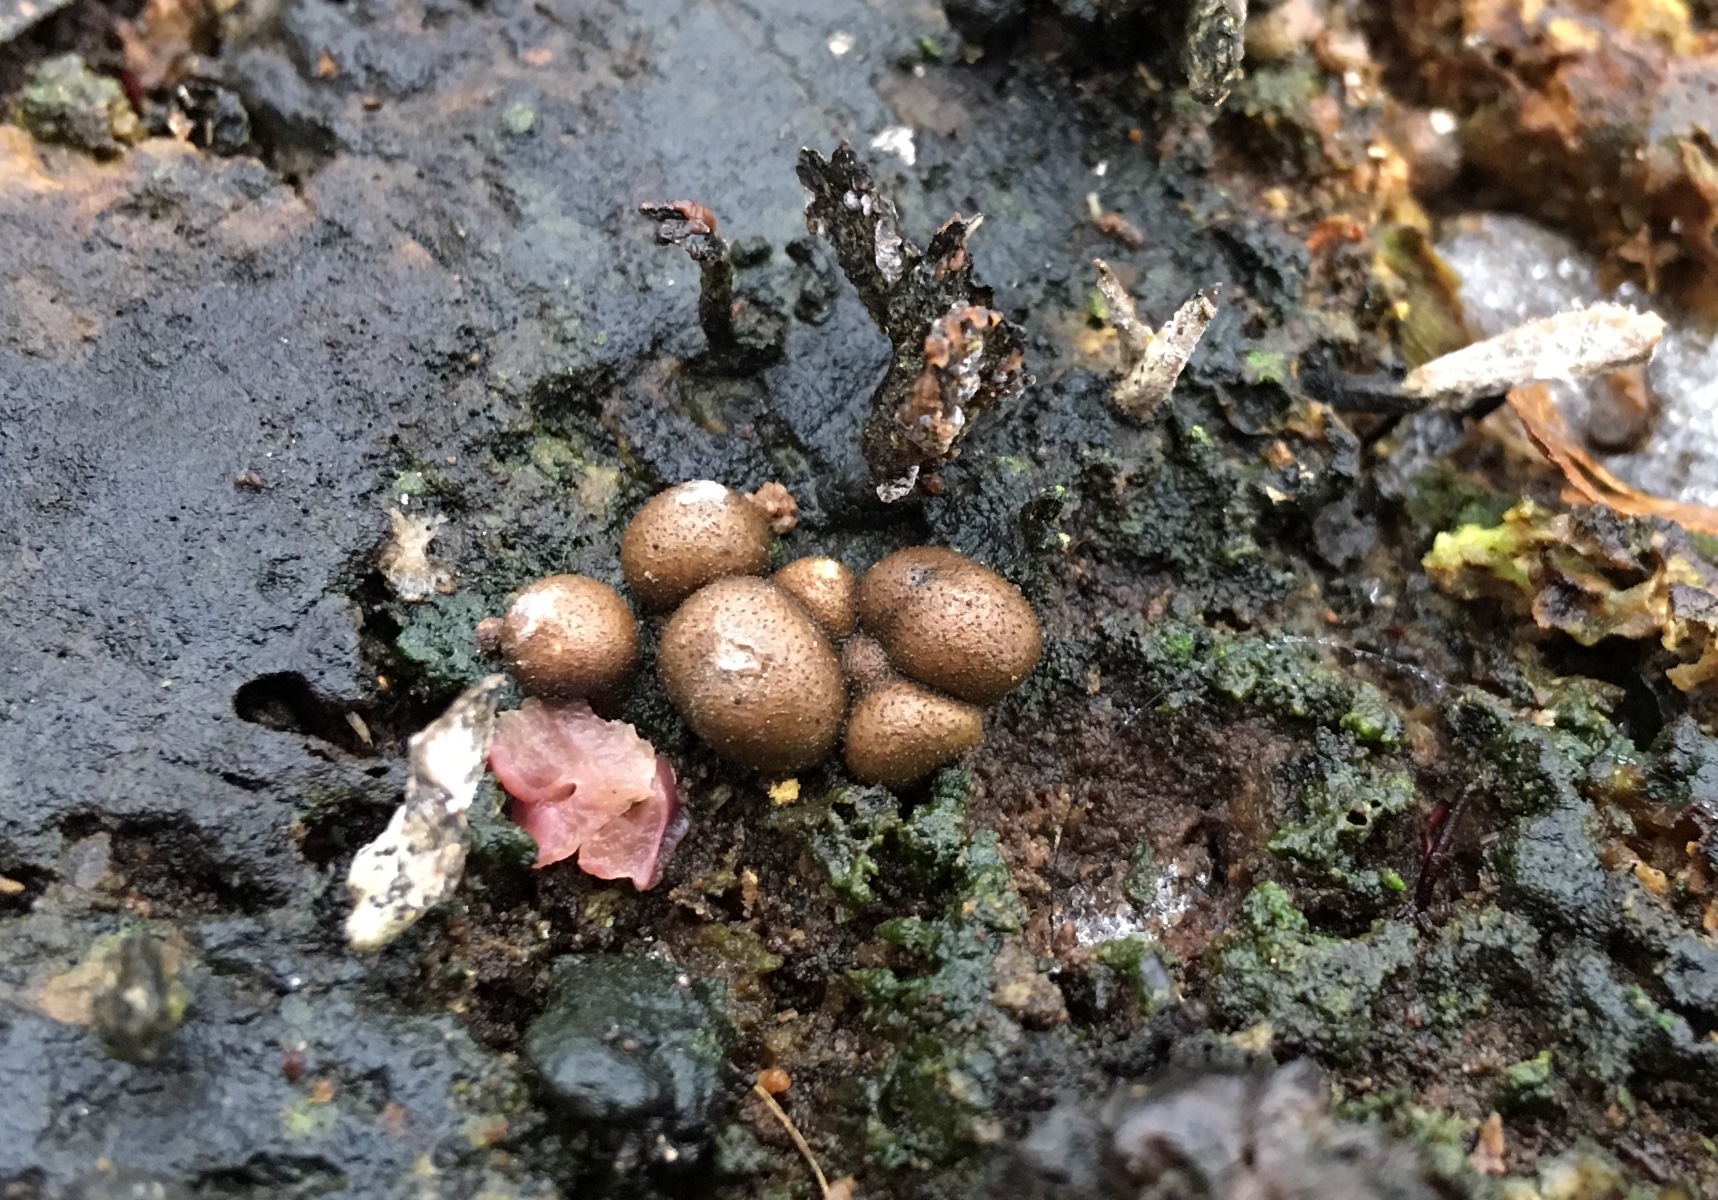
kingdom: Protozoa
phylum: Mycetozoa
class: Myxomycetes
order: Cribrariales
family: Tubiferaceae
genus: Lycogala
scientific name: Lycogala epidendrum
